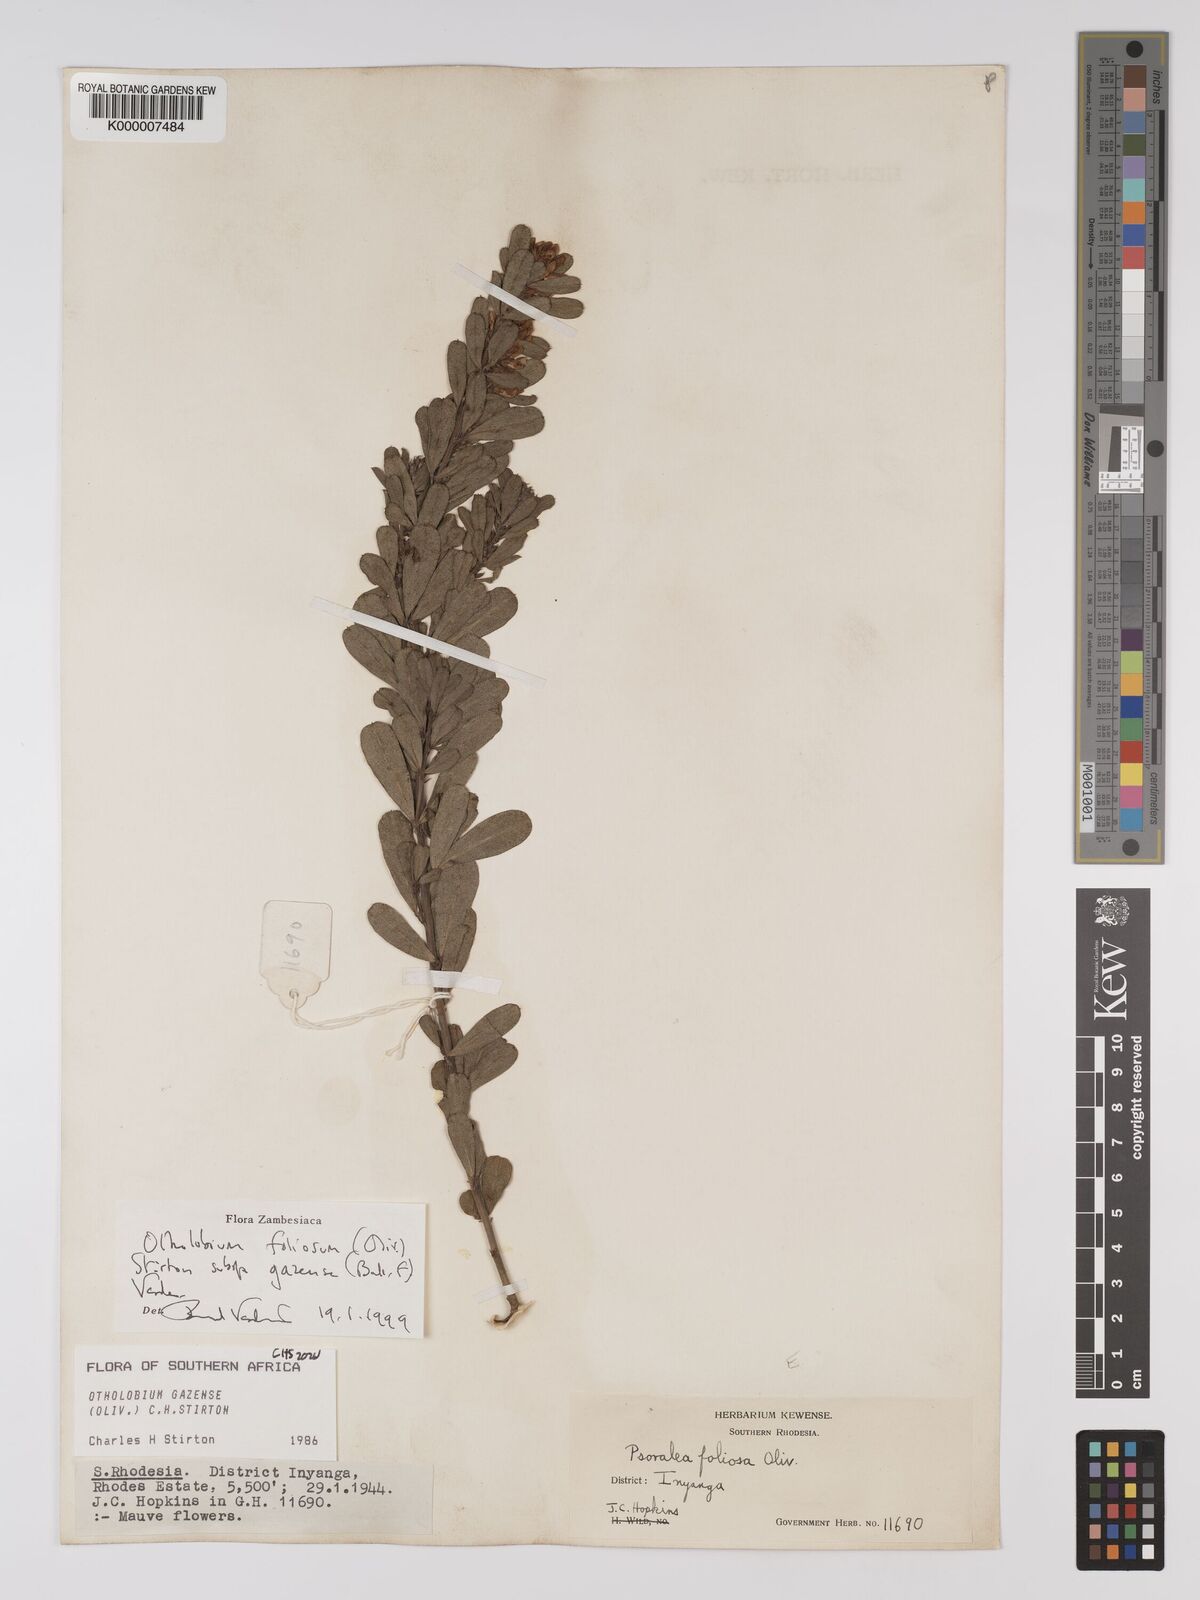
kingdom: Plantae
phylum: Tracheophyta
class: Magnoliopsida
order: Fabales
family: Fabaceae
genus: Psoralea
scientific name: Psoralea foliosa
